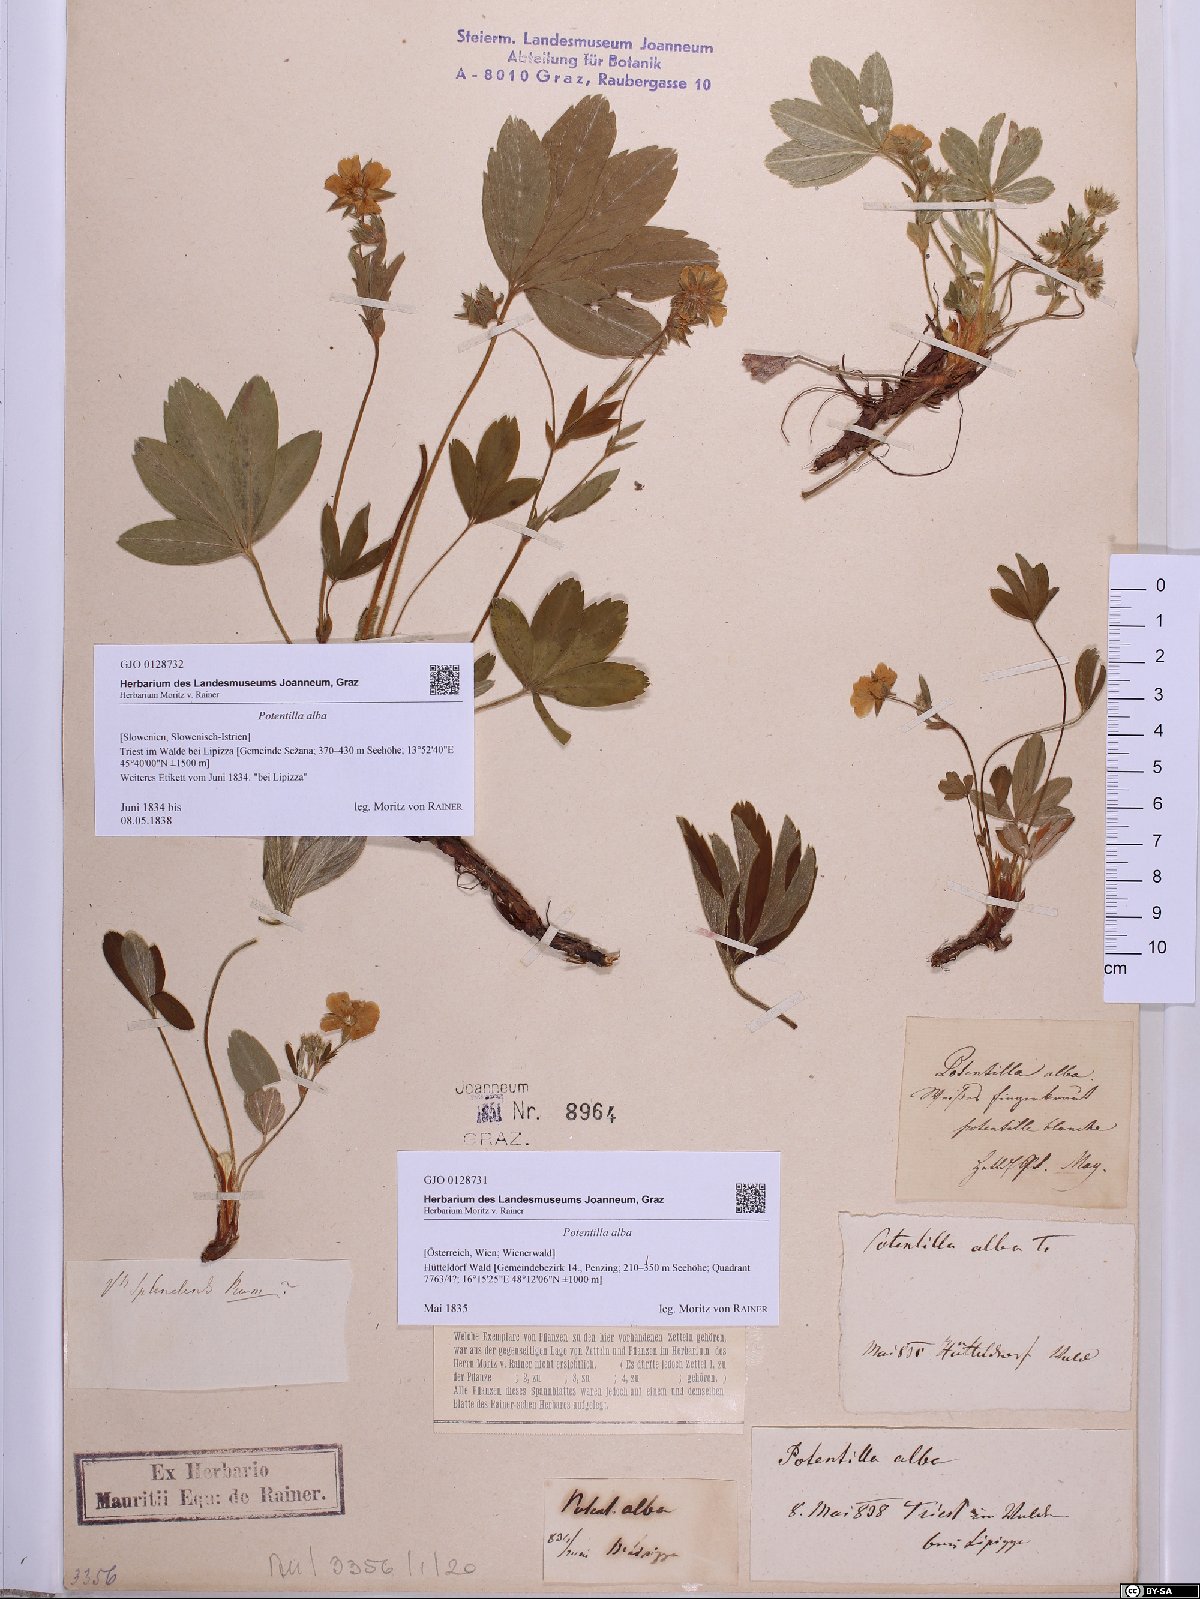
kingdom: Plantae
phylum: Tracheophyta
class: Magnoliopsida
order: Rosales
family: Rosaceae
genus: Potentilla
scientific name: Potentilla alba
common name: White cinquefoil
